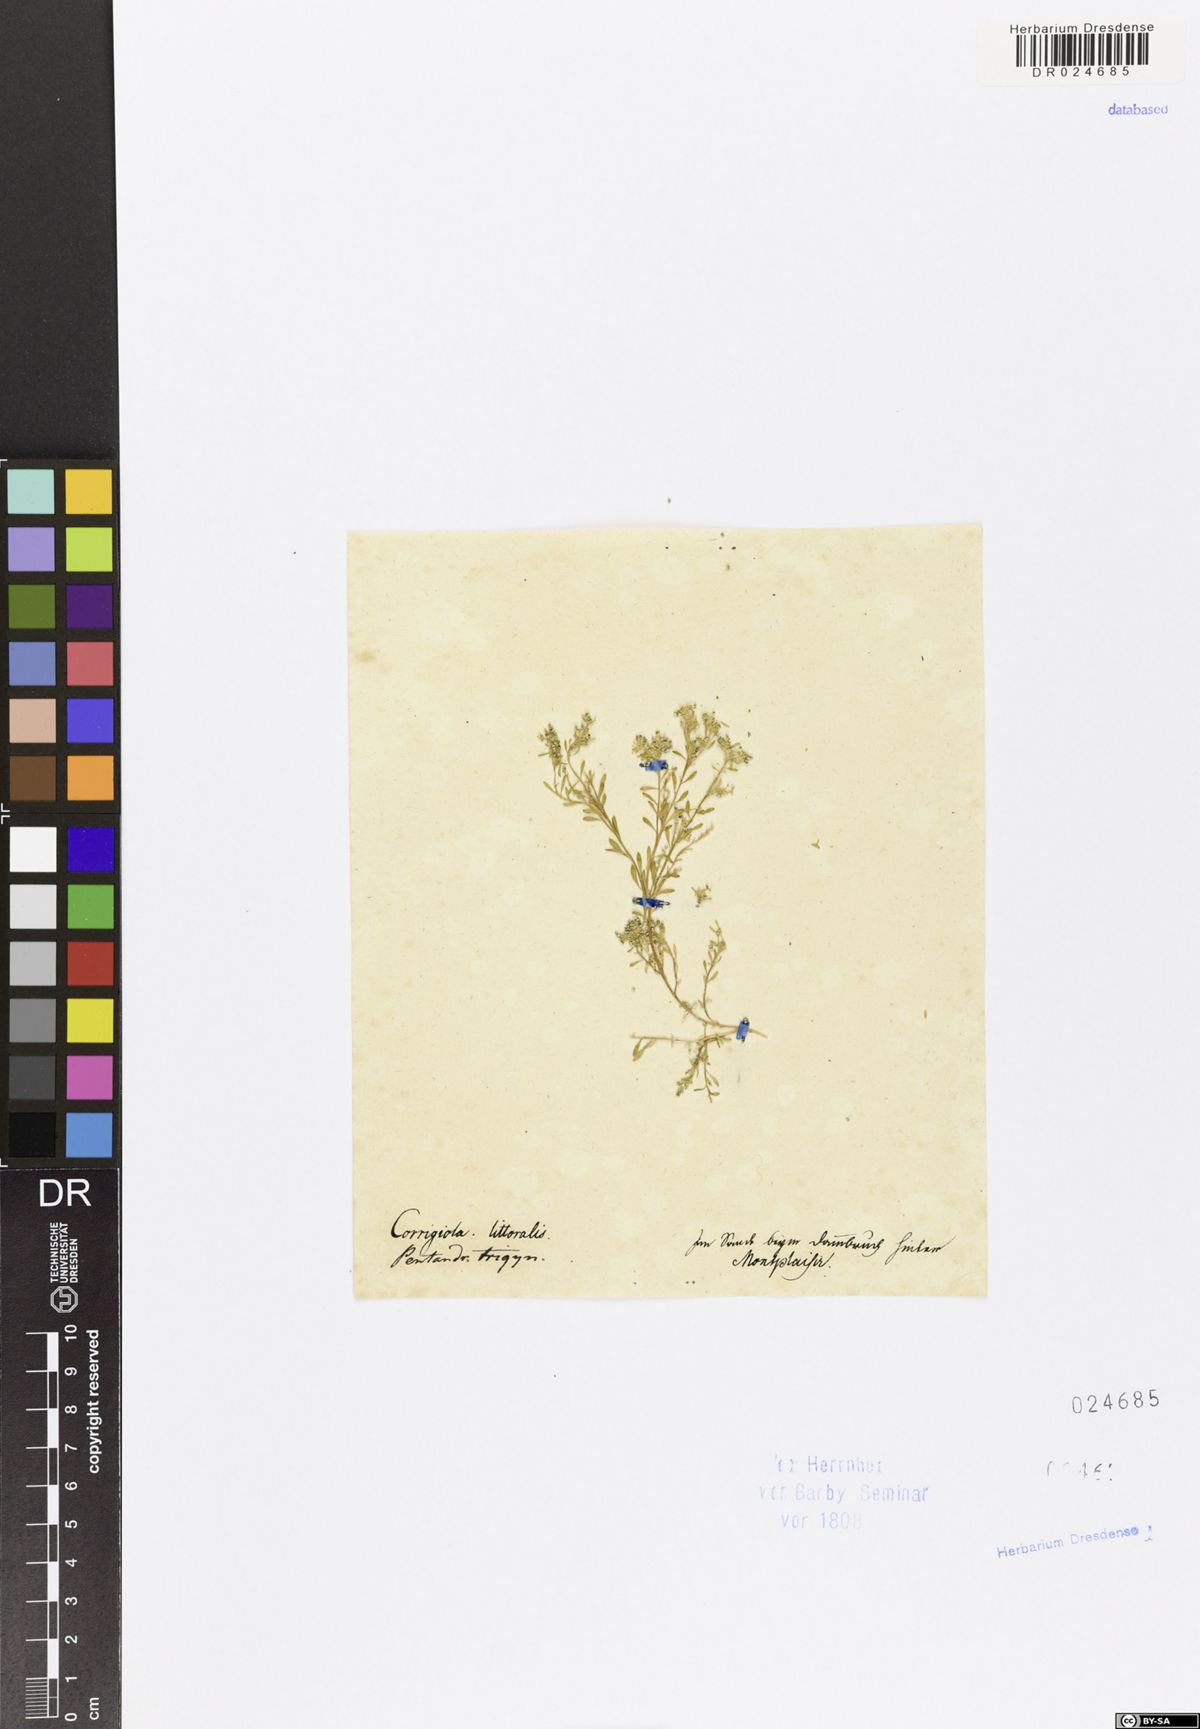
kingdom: Plantae
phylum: Tracheophyta
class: Magnoliopsida
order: Caryophyllales
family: Caryophyllaceae
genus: Corrigiola
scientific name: Corrigiola litoralis
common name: Strapwort
